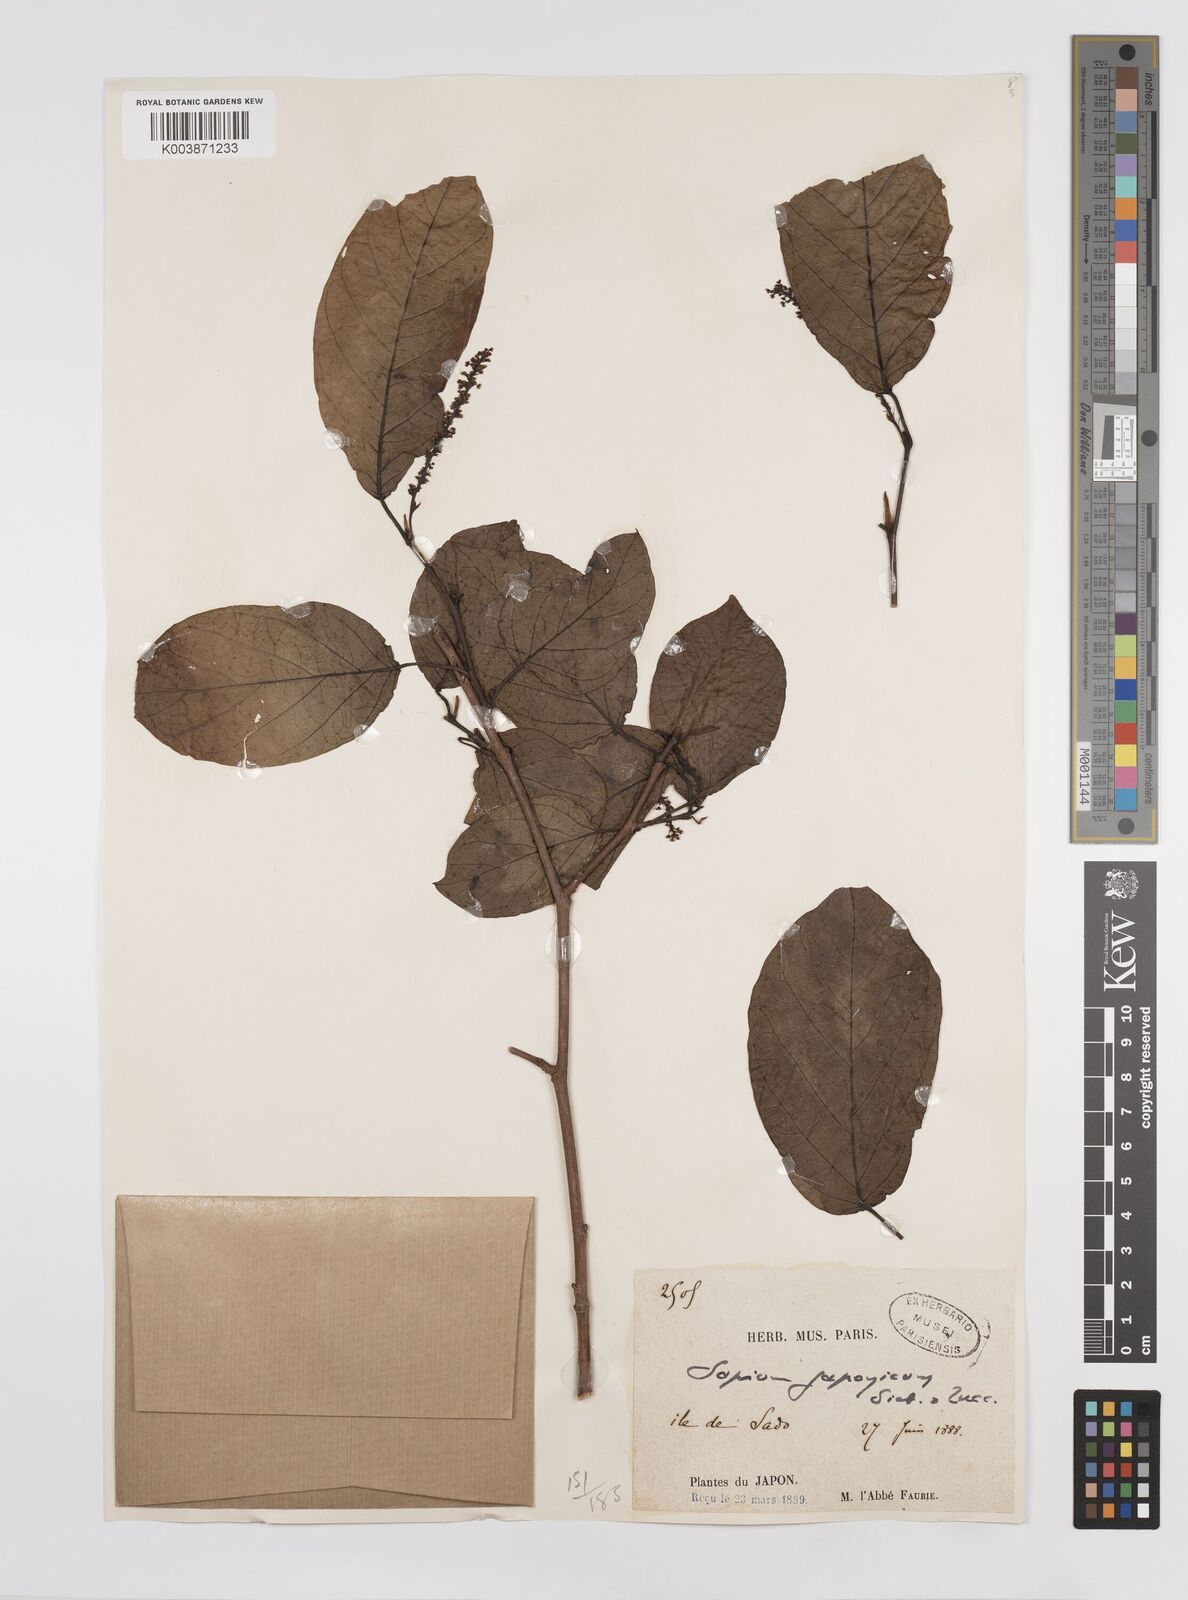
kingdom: Plantae
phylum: Tracheophyta
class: Magnoliopsida
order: Malpighiales
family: Euphorbiaceae
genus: Neoshirakia
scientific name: Neoshirakia japonica
